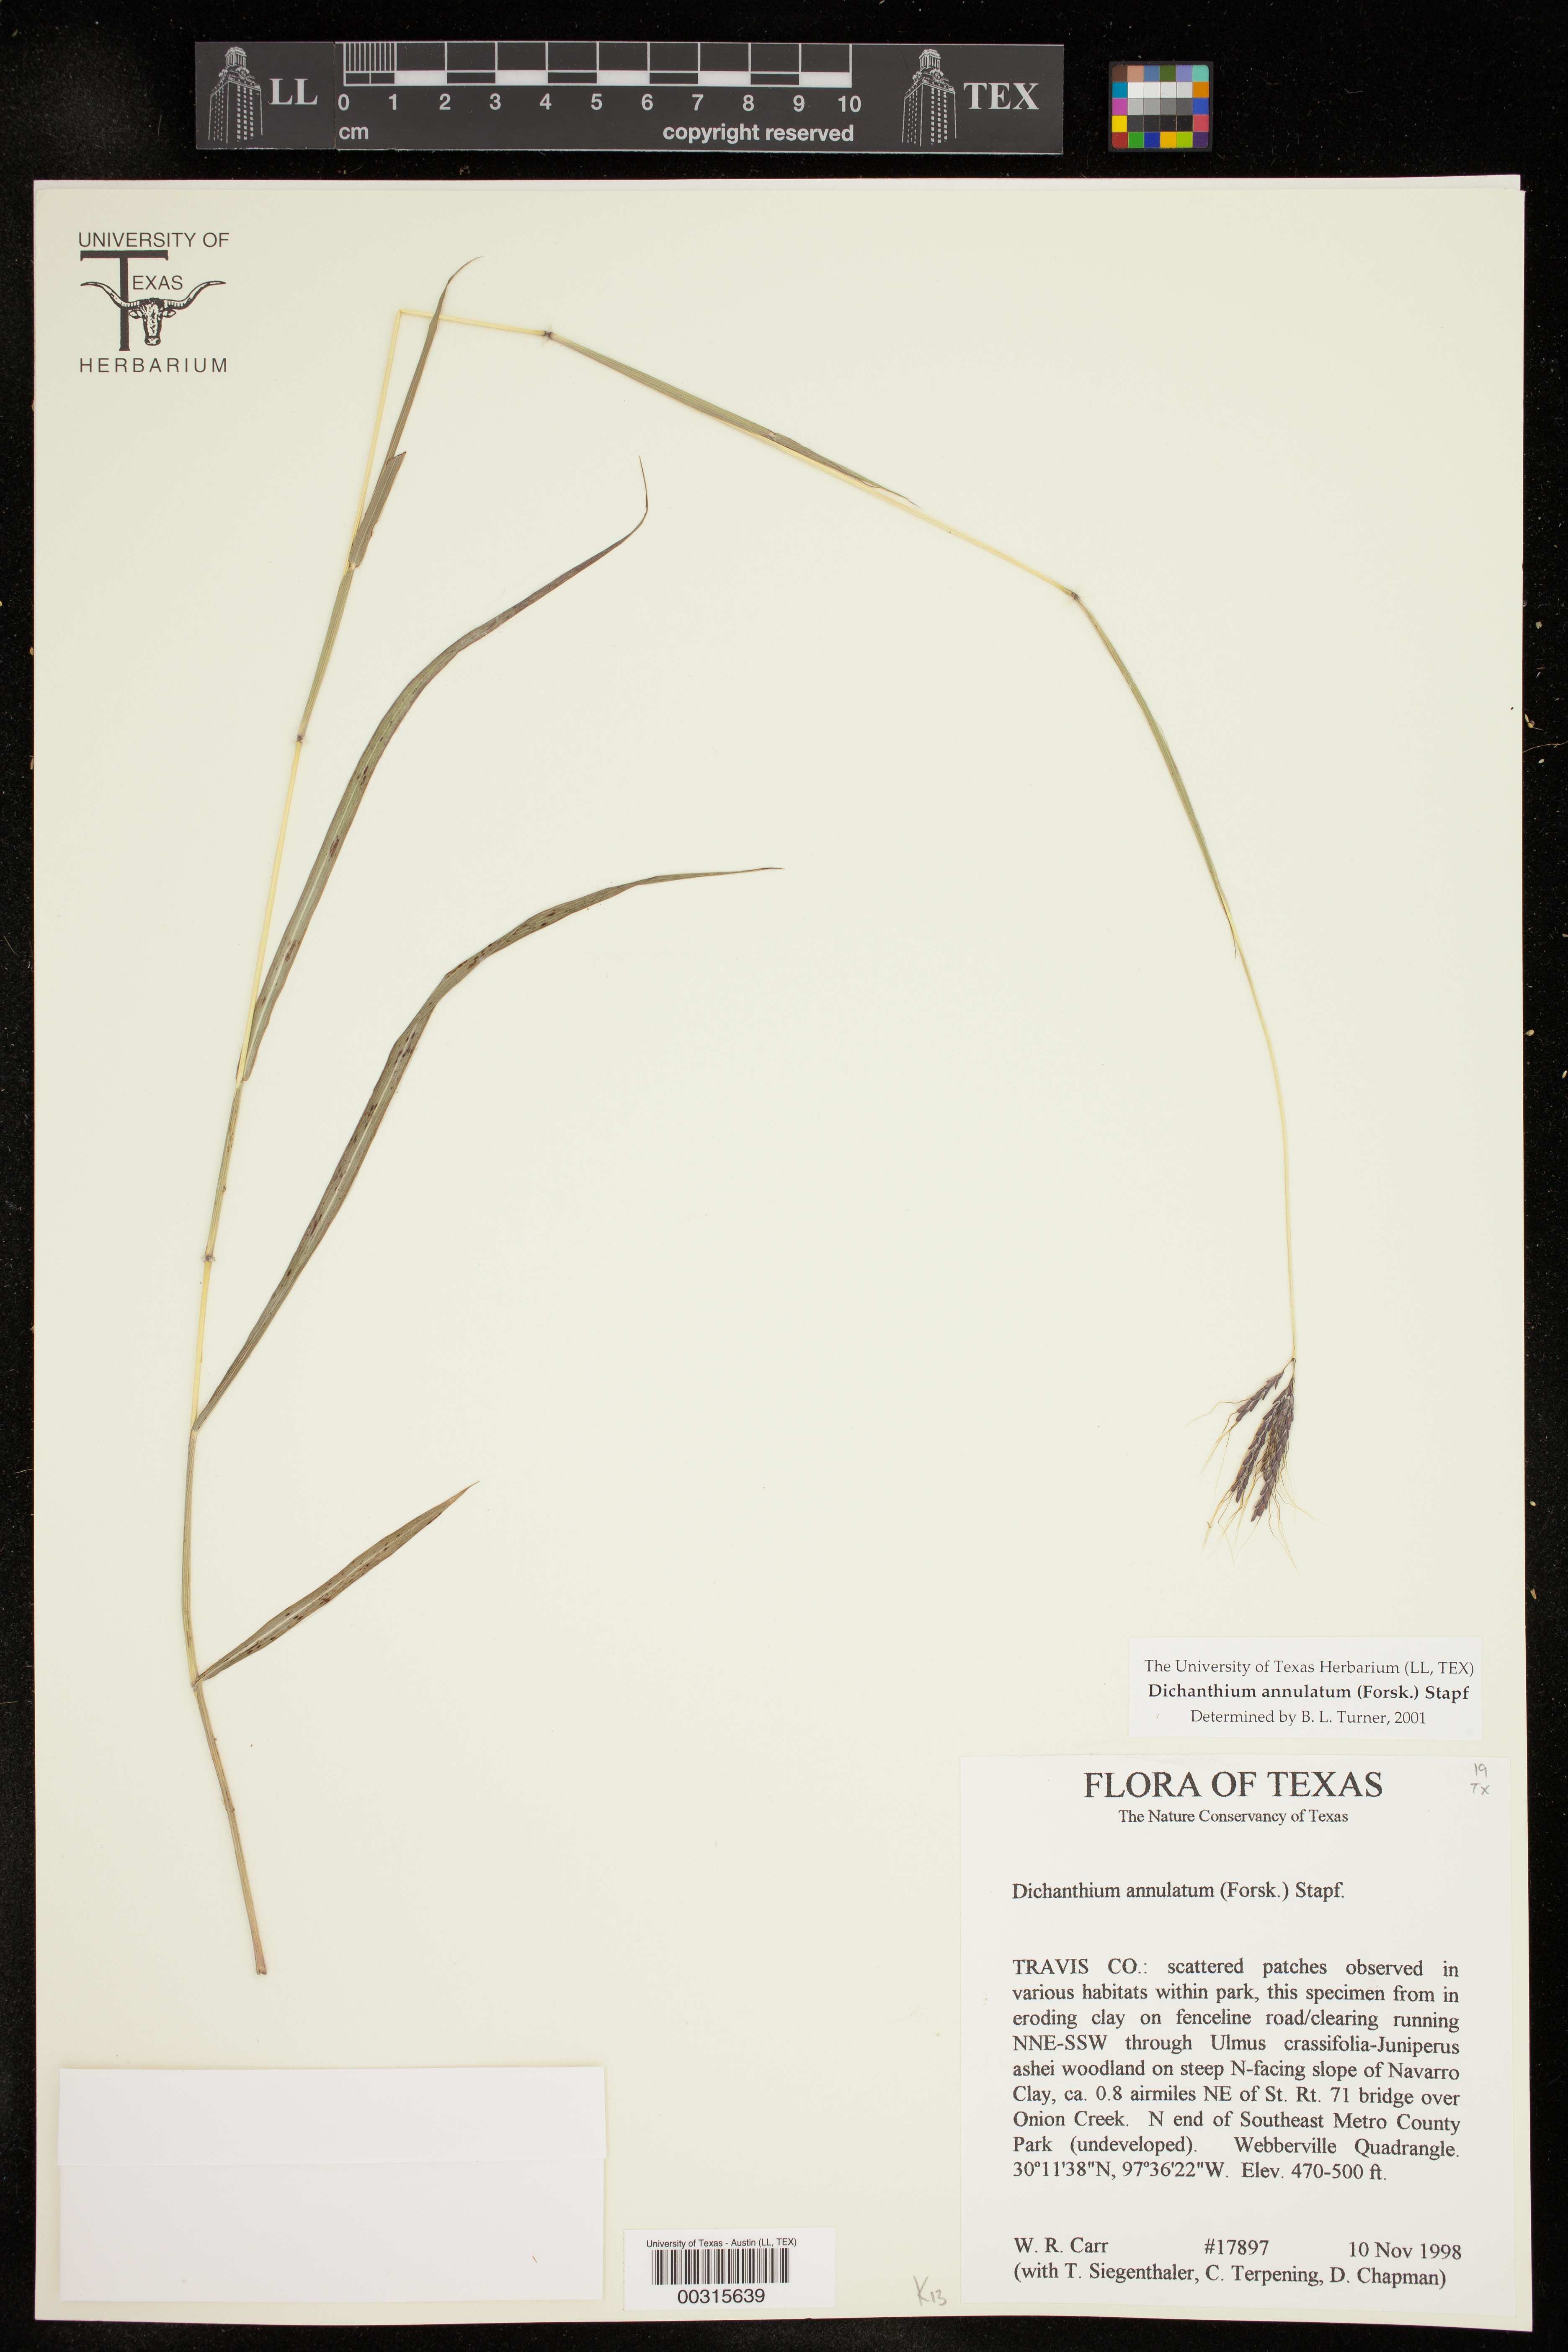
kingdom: Plantae
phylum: Tracheophyta
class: Liliopsida
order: Poales
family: Poaceae
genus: Dichanthium
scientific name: Dichanthium annulatum
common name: Kleberg's bluestem
